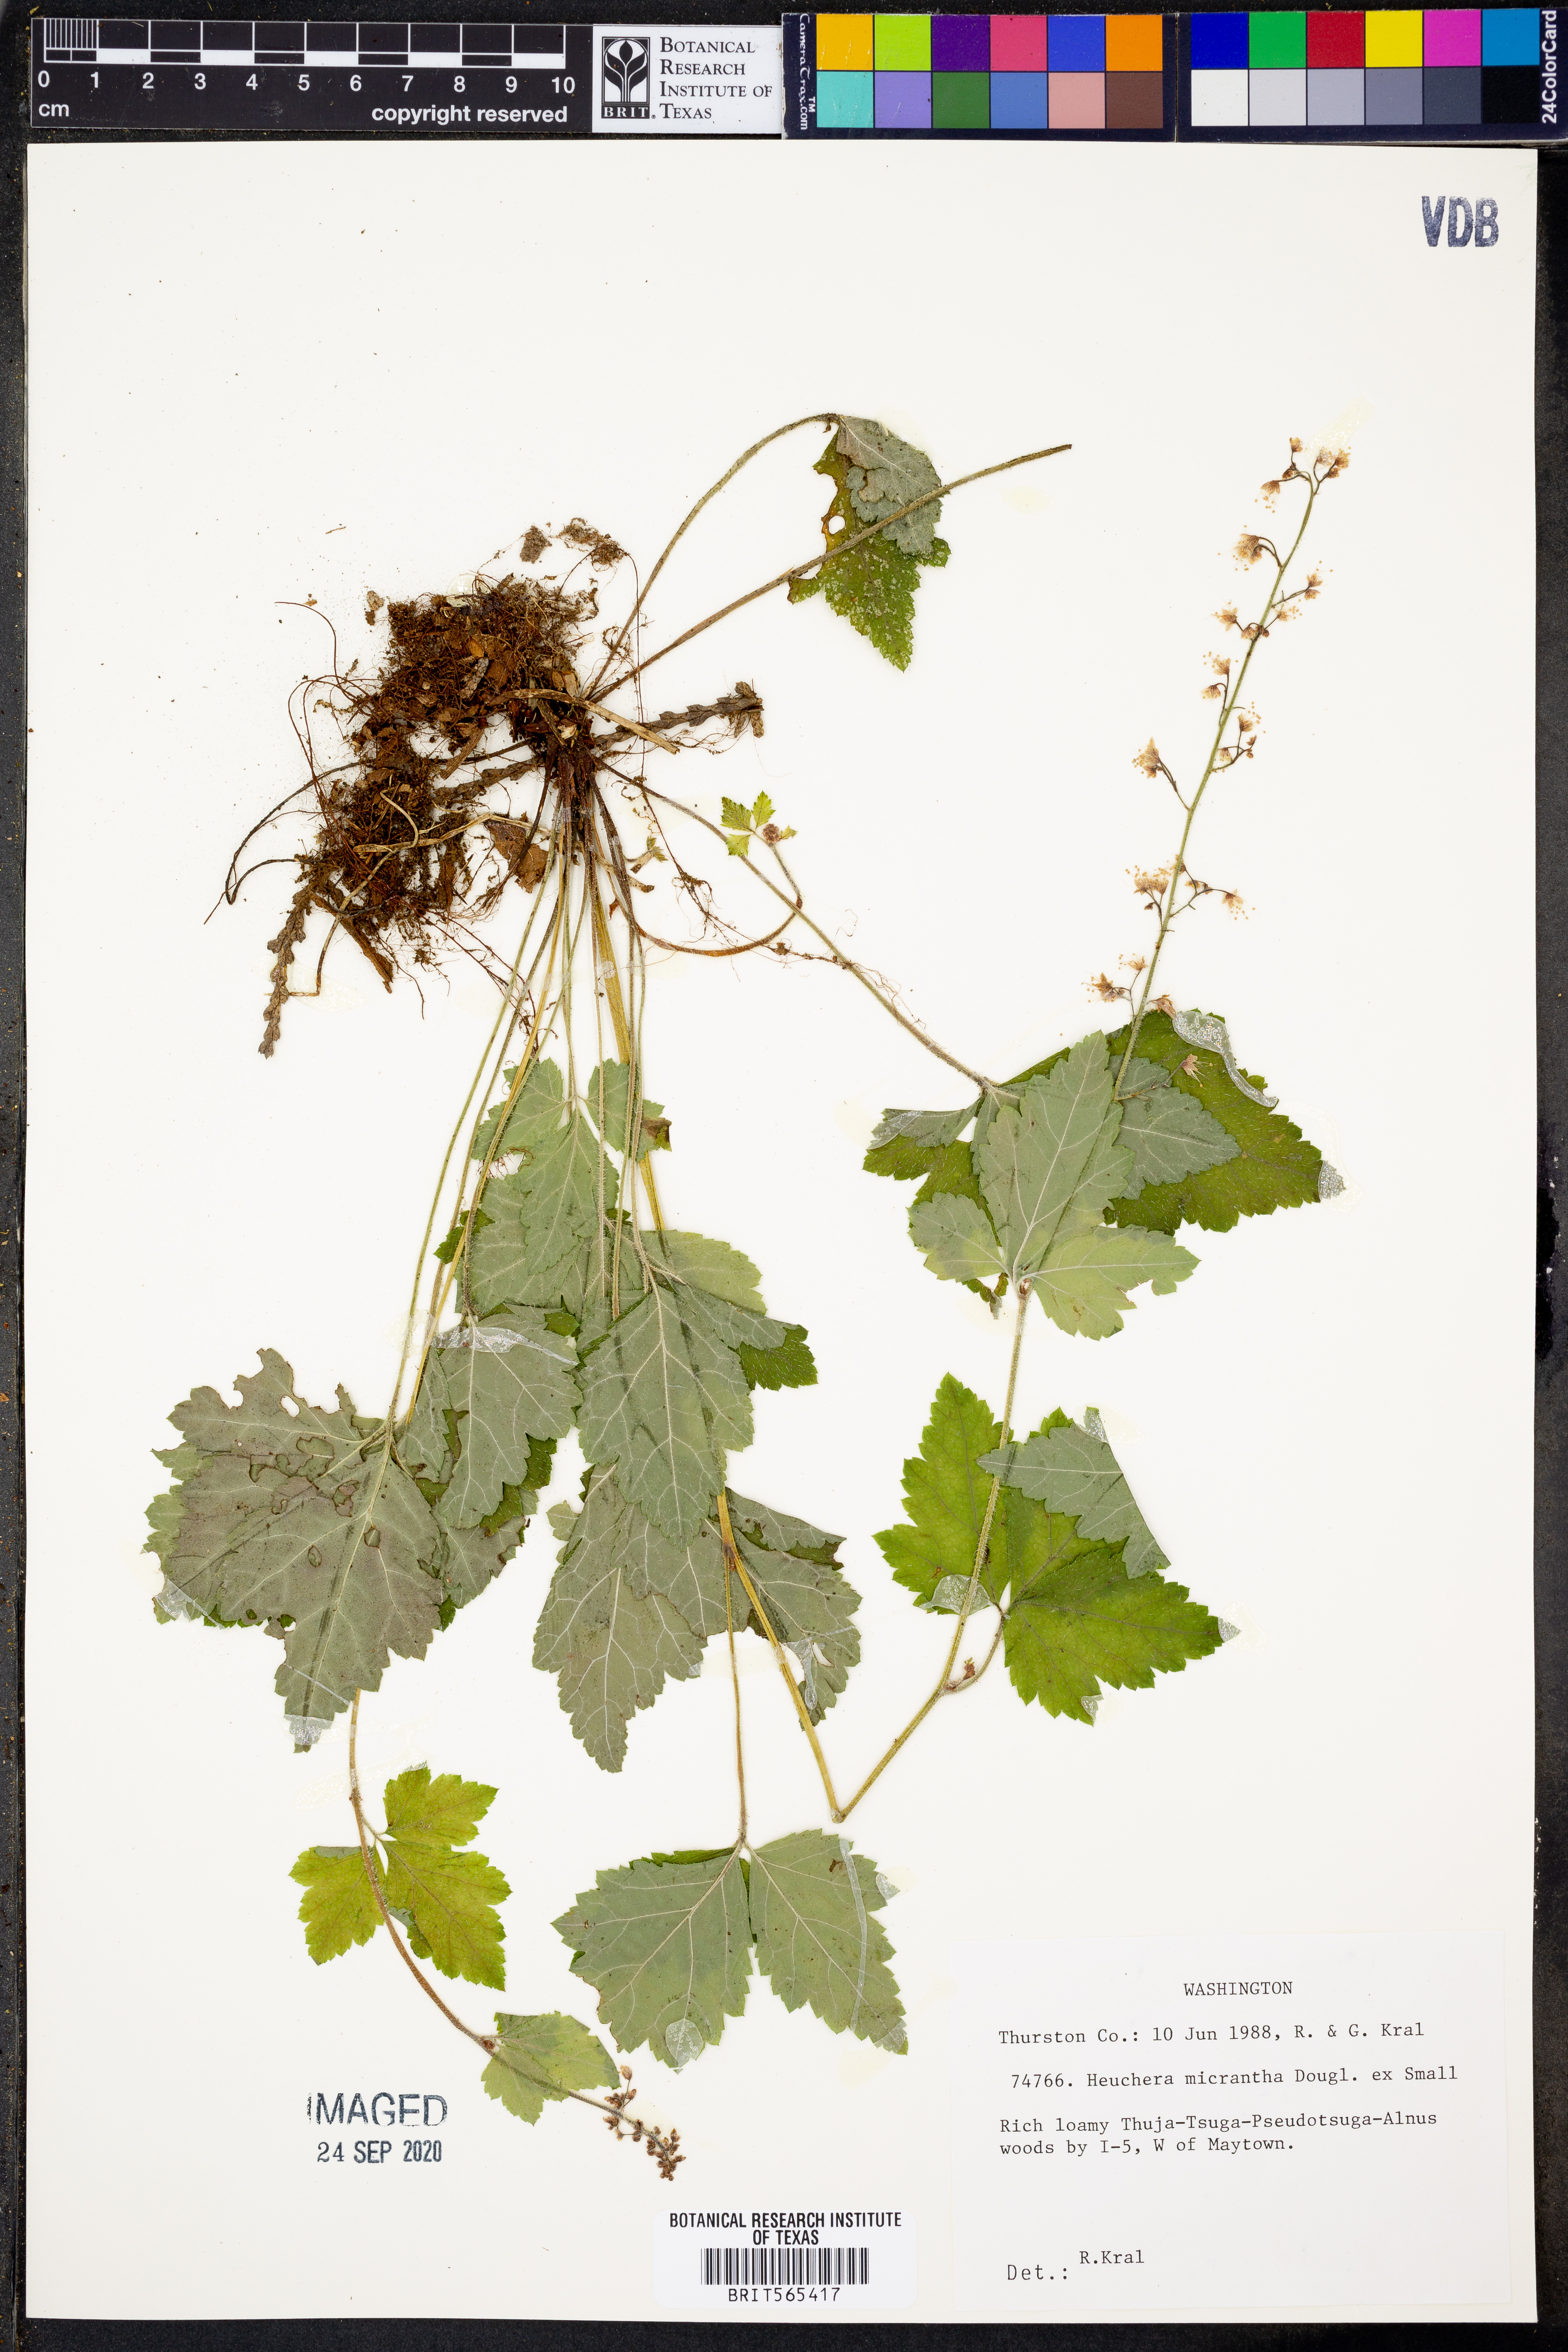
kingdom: Plantae
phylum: Tracheophyta
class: Magnoliopsida
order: Saxifragales
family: Saxifragaceae
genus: Heuchera
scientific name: Heuchera micrantha
